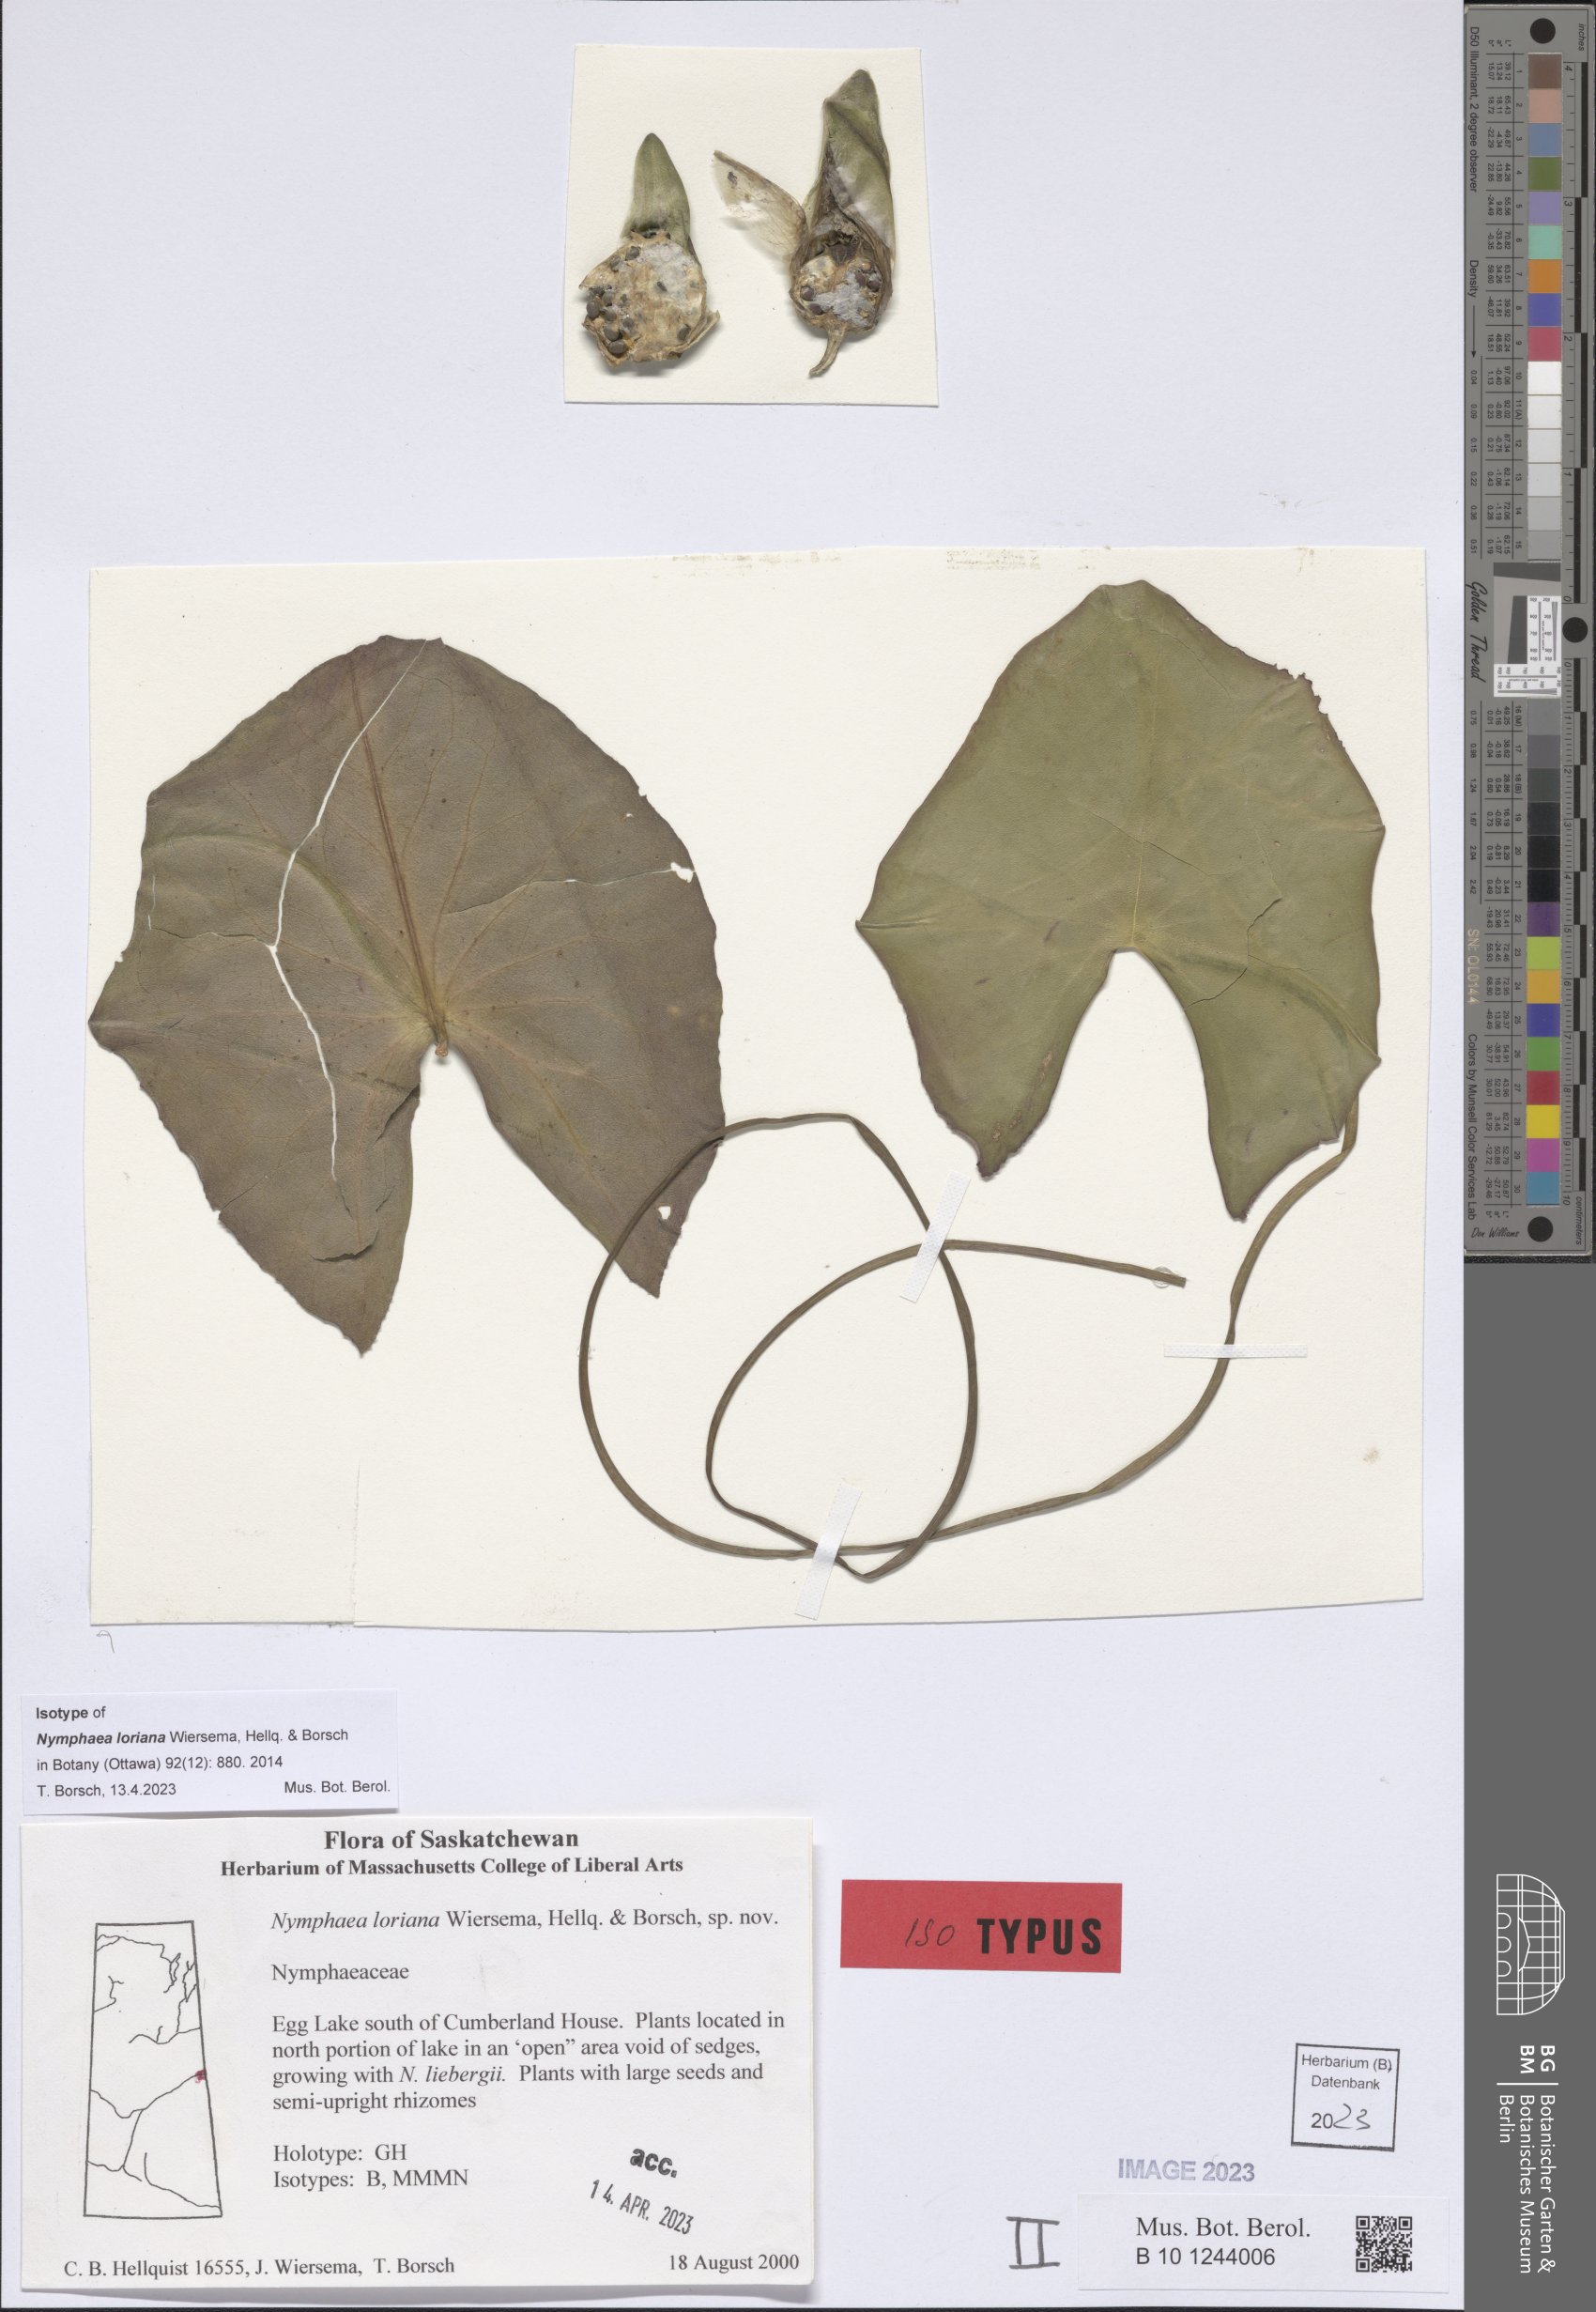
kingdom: Plantae
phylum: Tracheophyta
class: Magnoliopsida
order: Nymphaeales
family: Nymphaeaceae
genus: Nymphaea
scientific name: Nymphaea loriana
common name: Lori's water-lily
